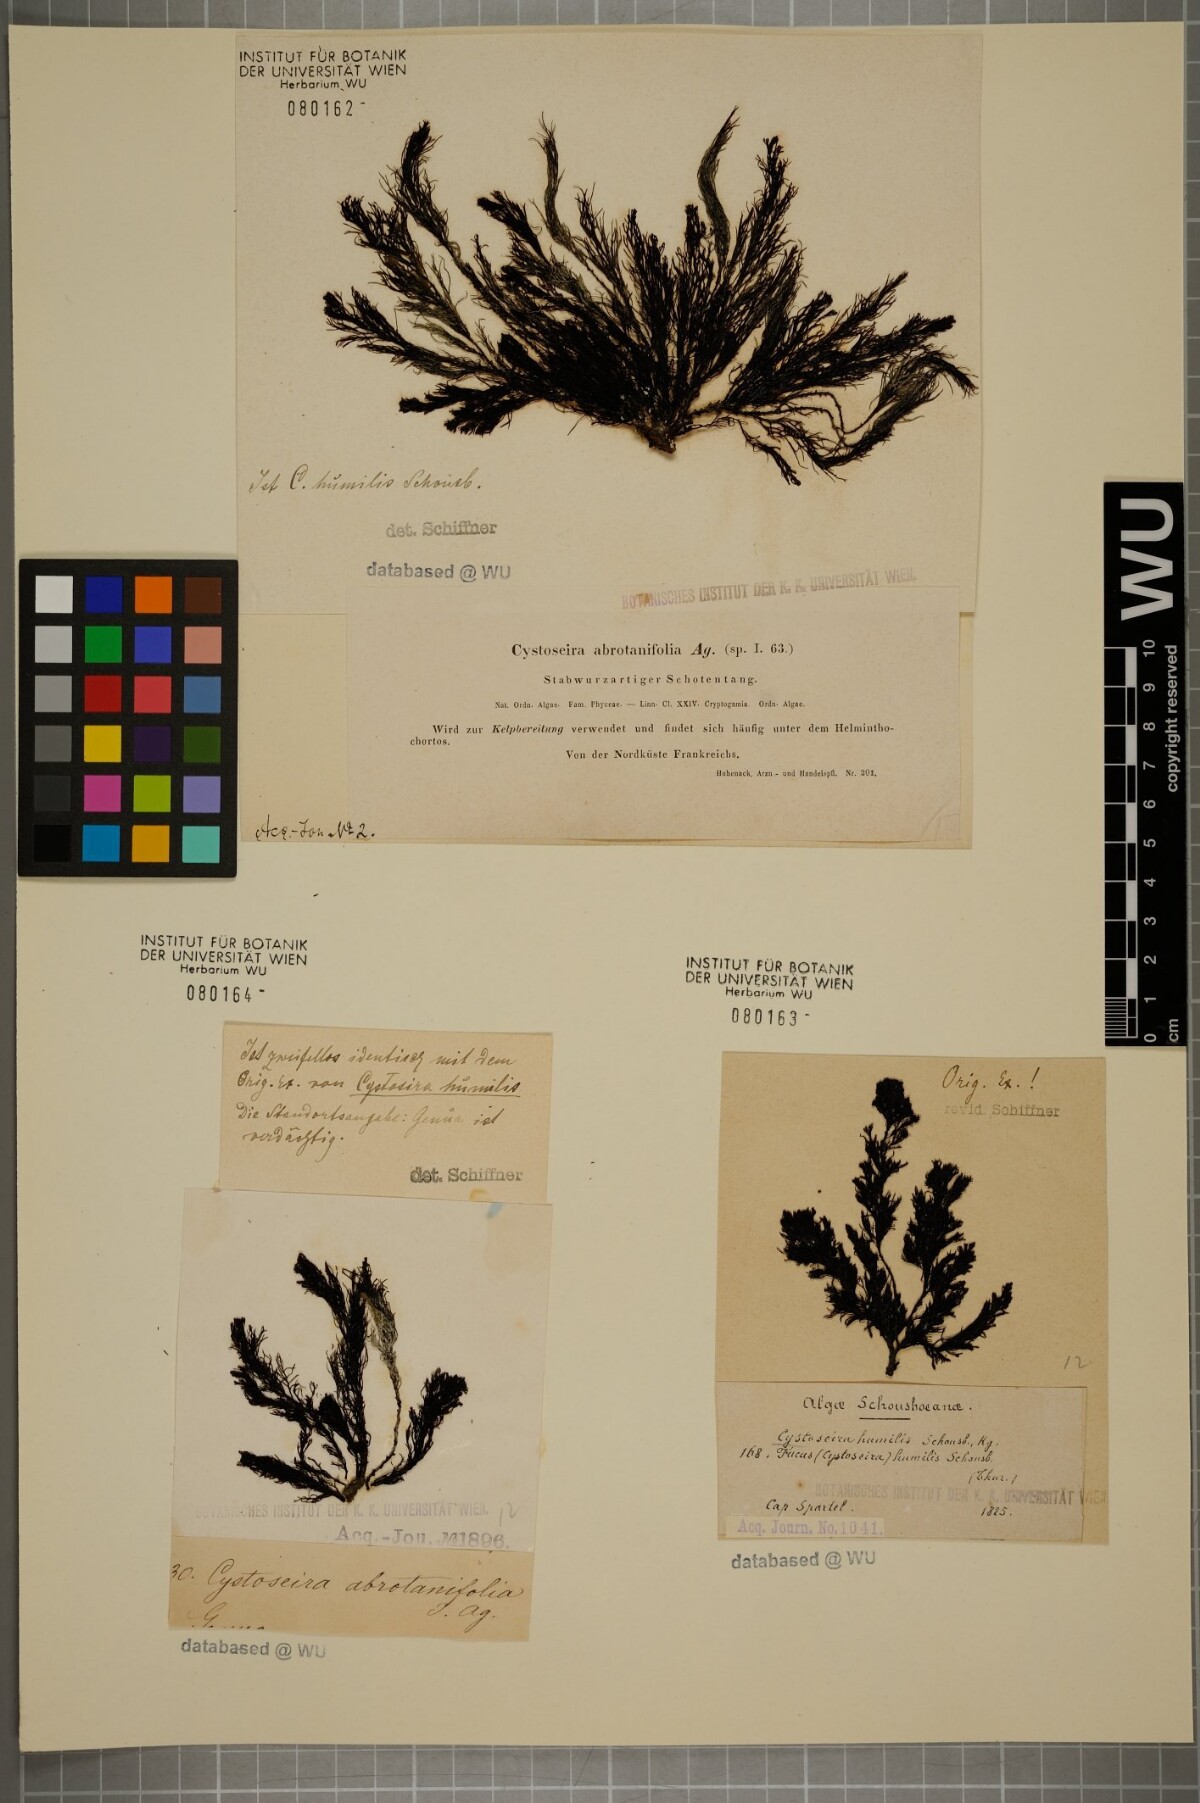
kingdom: Chromista
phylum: Ochrophyta
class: Phaeophyceae
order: Fucales
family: Sargassaceae
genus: Cystoseira
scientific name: Cystoseira humilis
